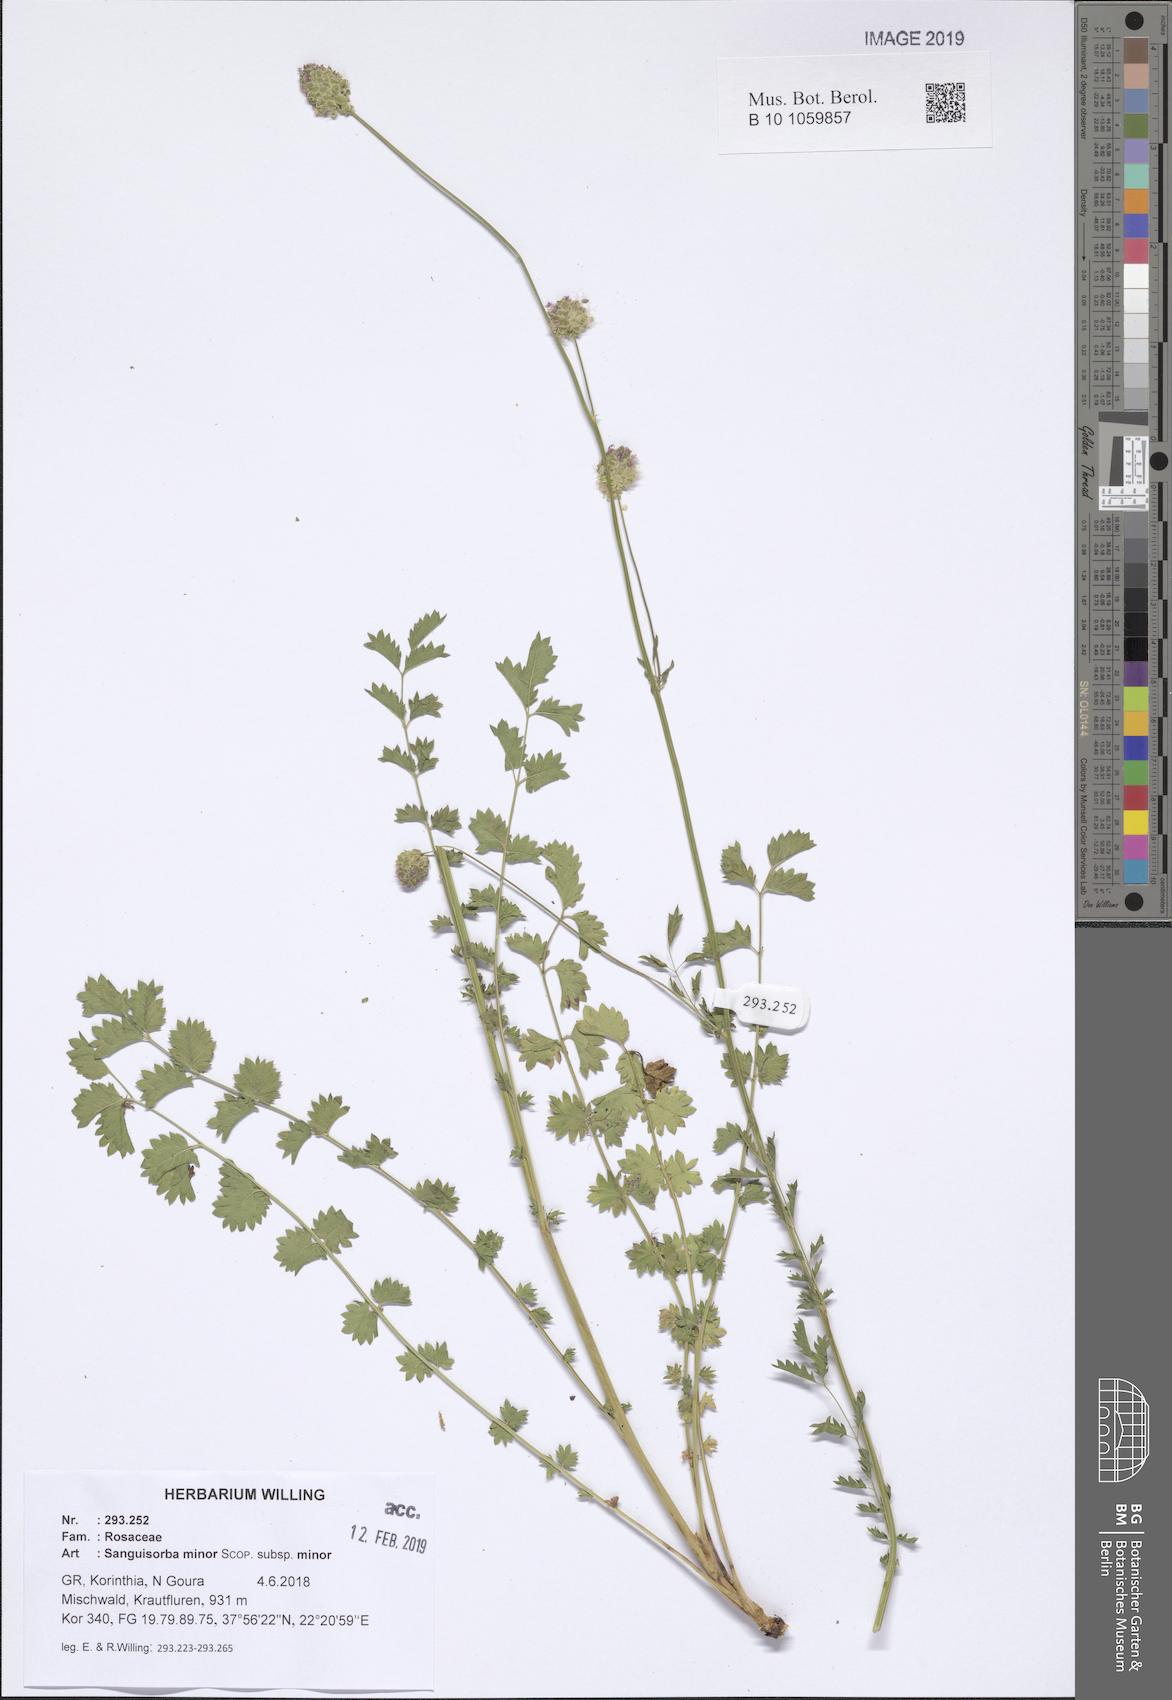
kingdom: Plantae
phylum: Tracheophyta
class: Magnoliopsida
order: Rosales
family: Rosaceae
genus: Poterium
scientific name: Poterium sanguisorba
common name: Salad burnet
